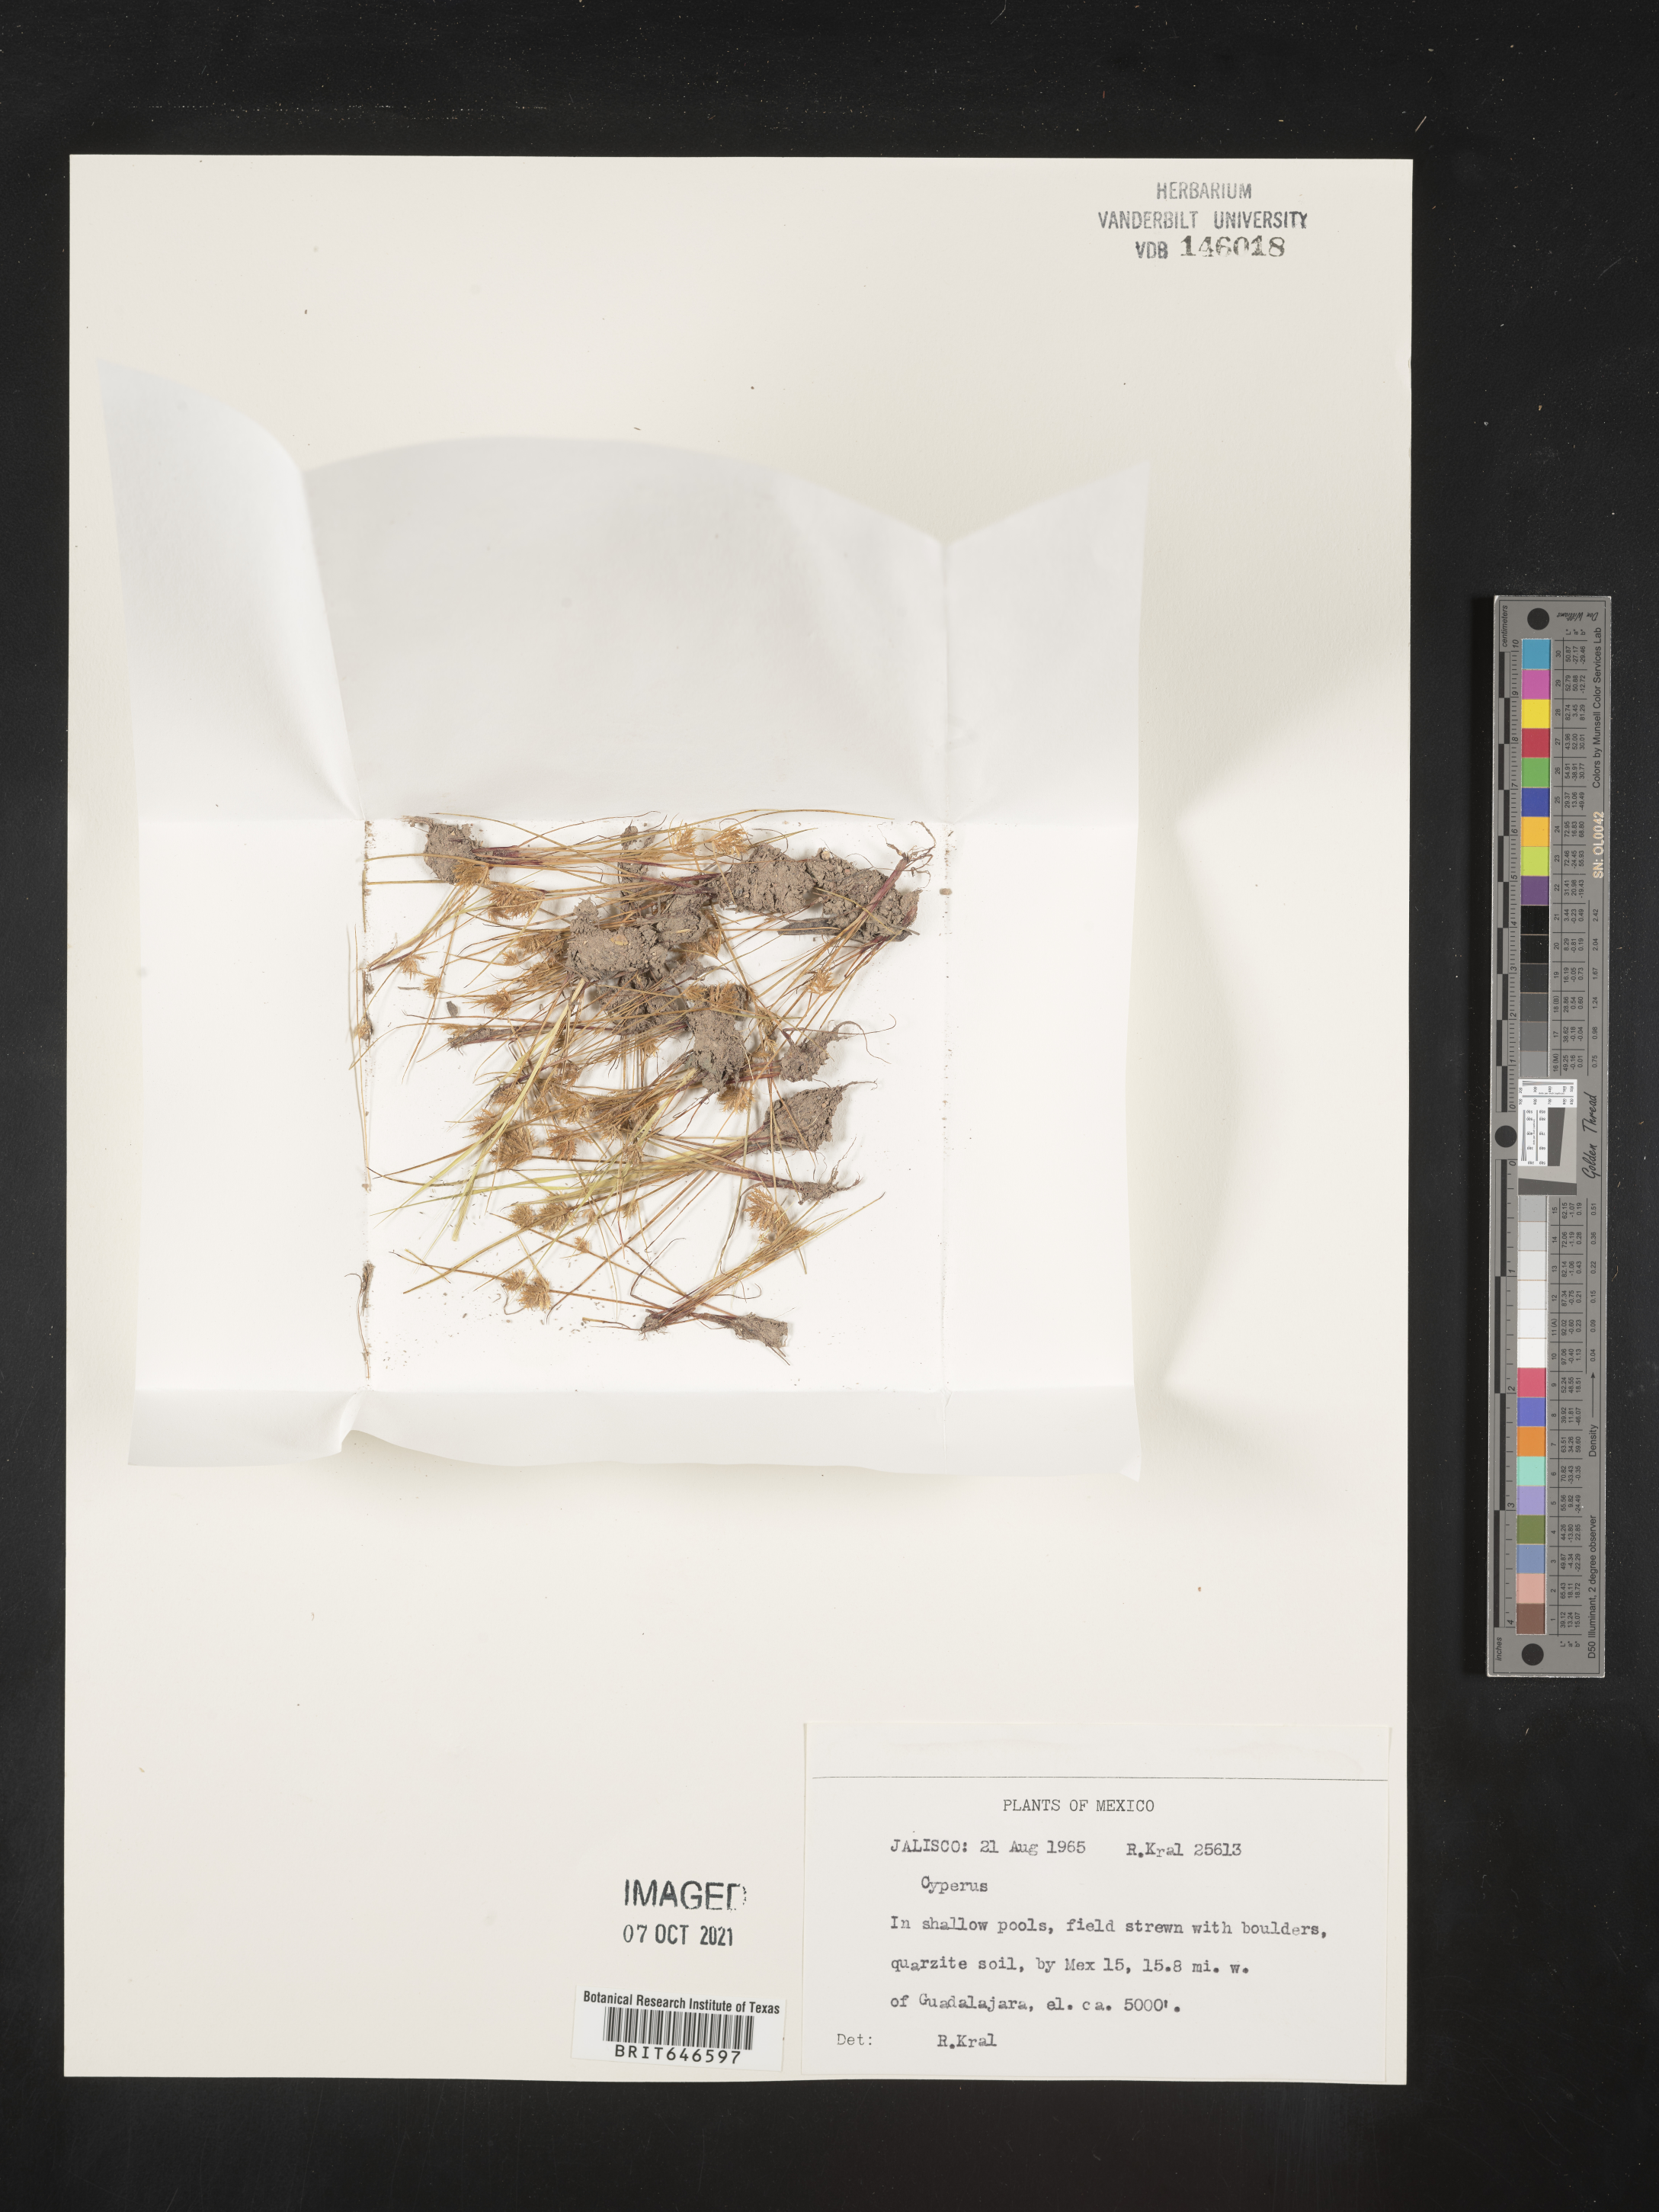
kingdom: Plantae
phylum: Tracheophyta
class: Liliopsida
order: Poales
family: Cyperaceae
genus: Cyperus
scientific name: Cyperus
